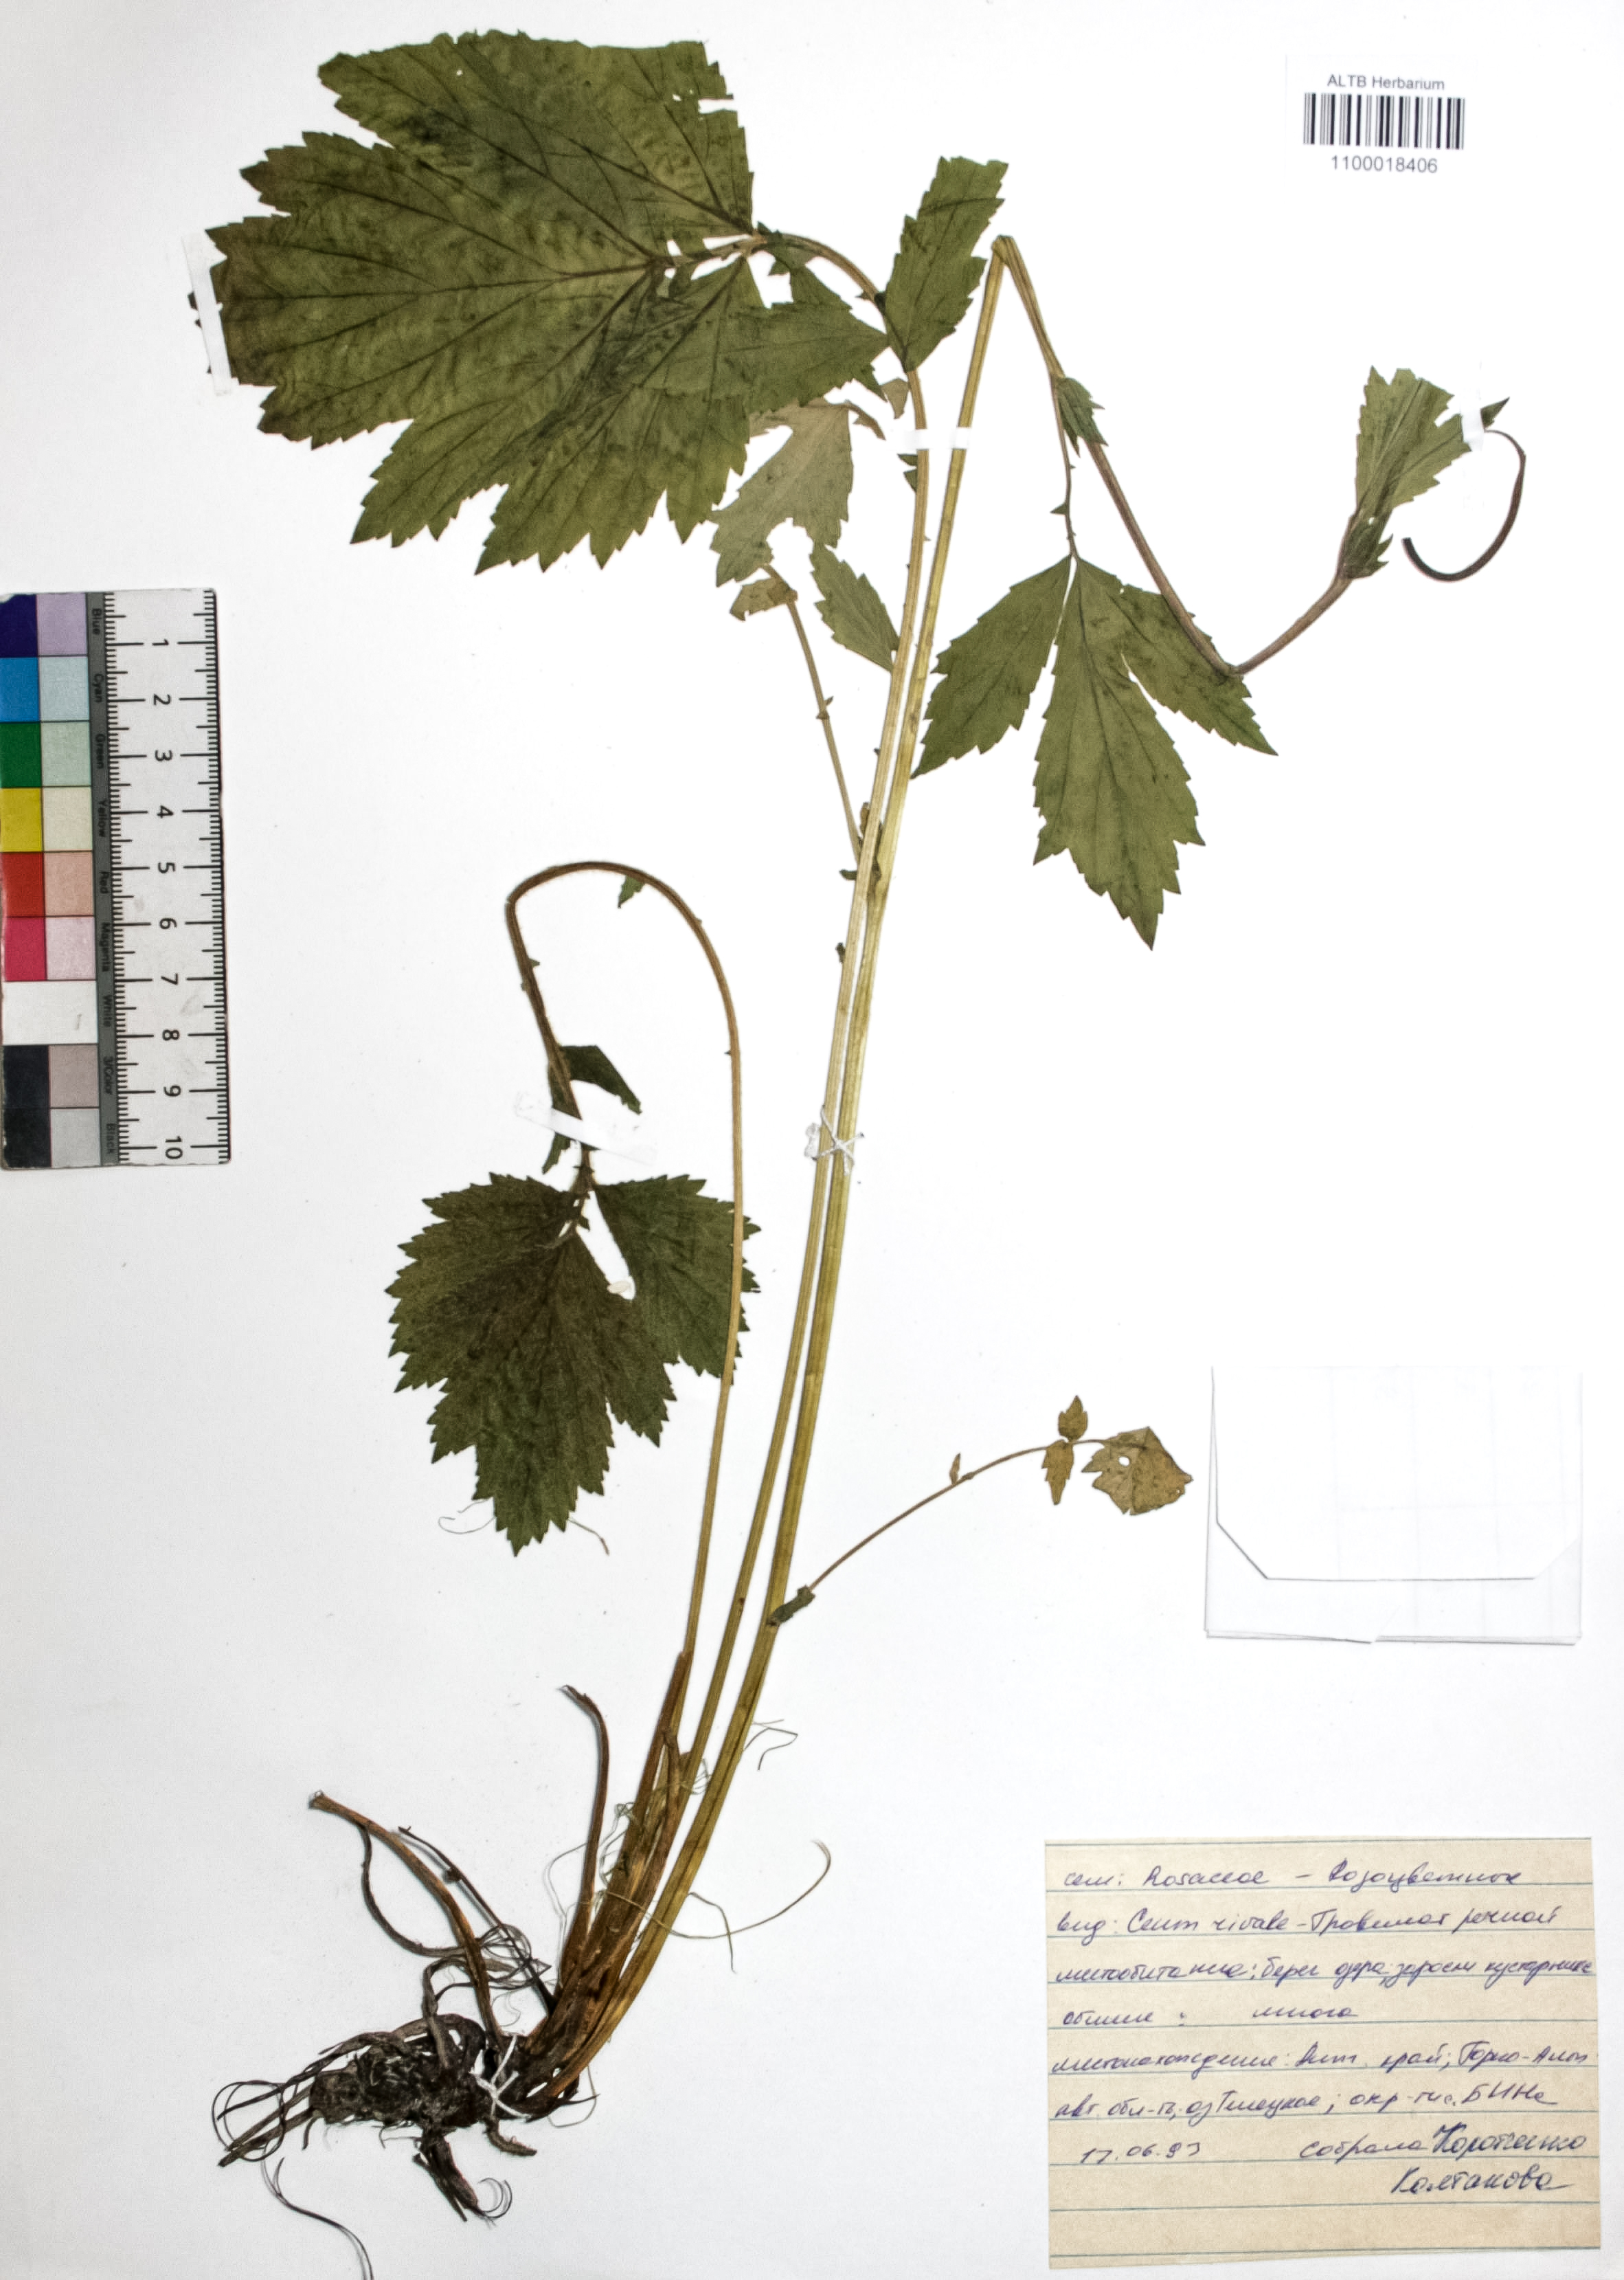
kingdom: Plantae
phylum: Tracheophyta
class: Magnoliopsida
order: Rosales
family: Rosaceae
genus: Geum
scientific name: Geum rivale
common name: Water avens
